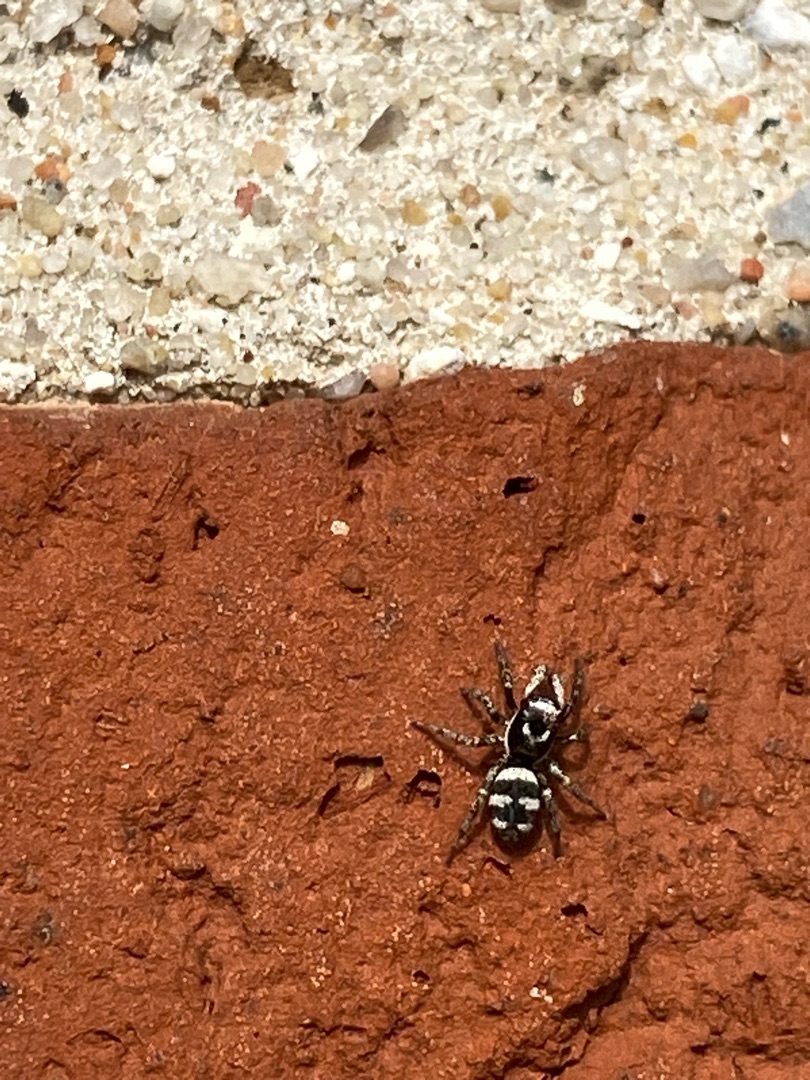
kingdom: Animalia
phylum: Arthropoda
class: Arachnida
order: Araneae
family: Salticidae
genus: Salticus
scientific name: Salticus scenicus
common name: Almindelig zebraedderkop
